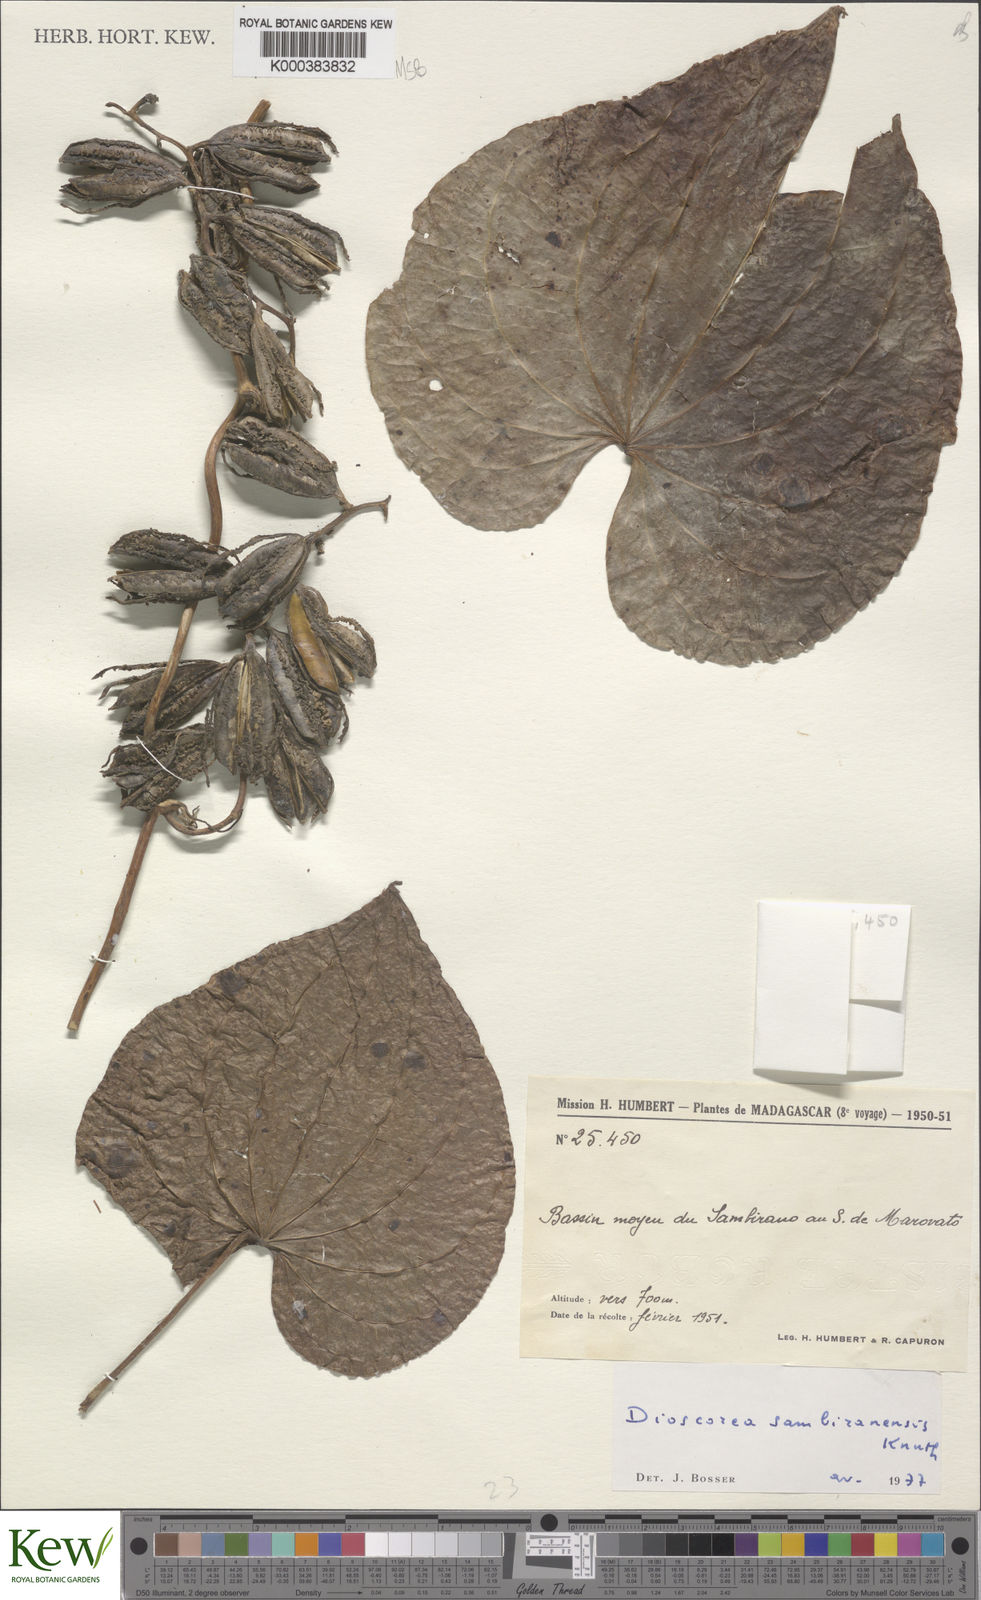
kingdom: Plantae
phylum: Tracheophyta
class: Liliopsida
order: Dioscoreales
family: Dioscoreaceae
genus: Dioscorea
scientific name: Dioscorea sambiranensis
